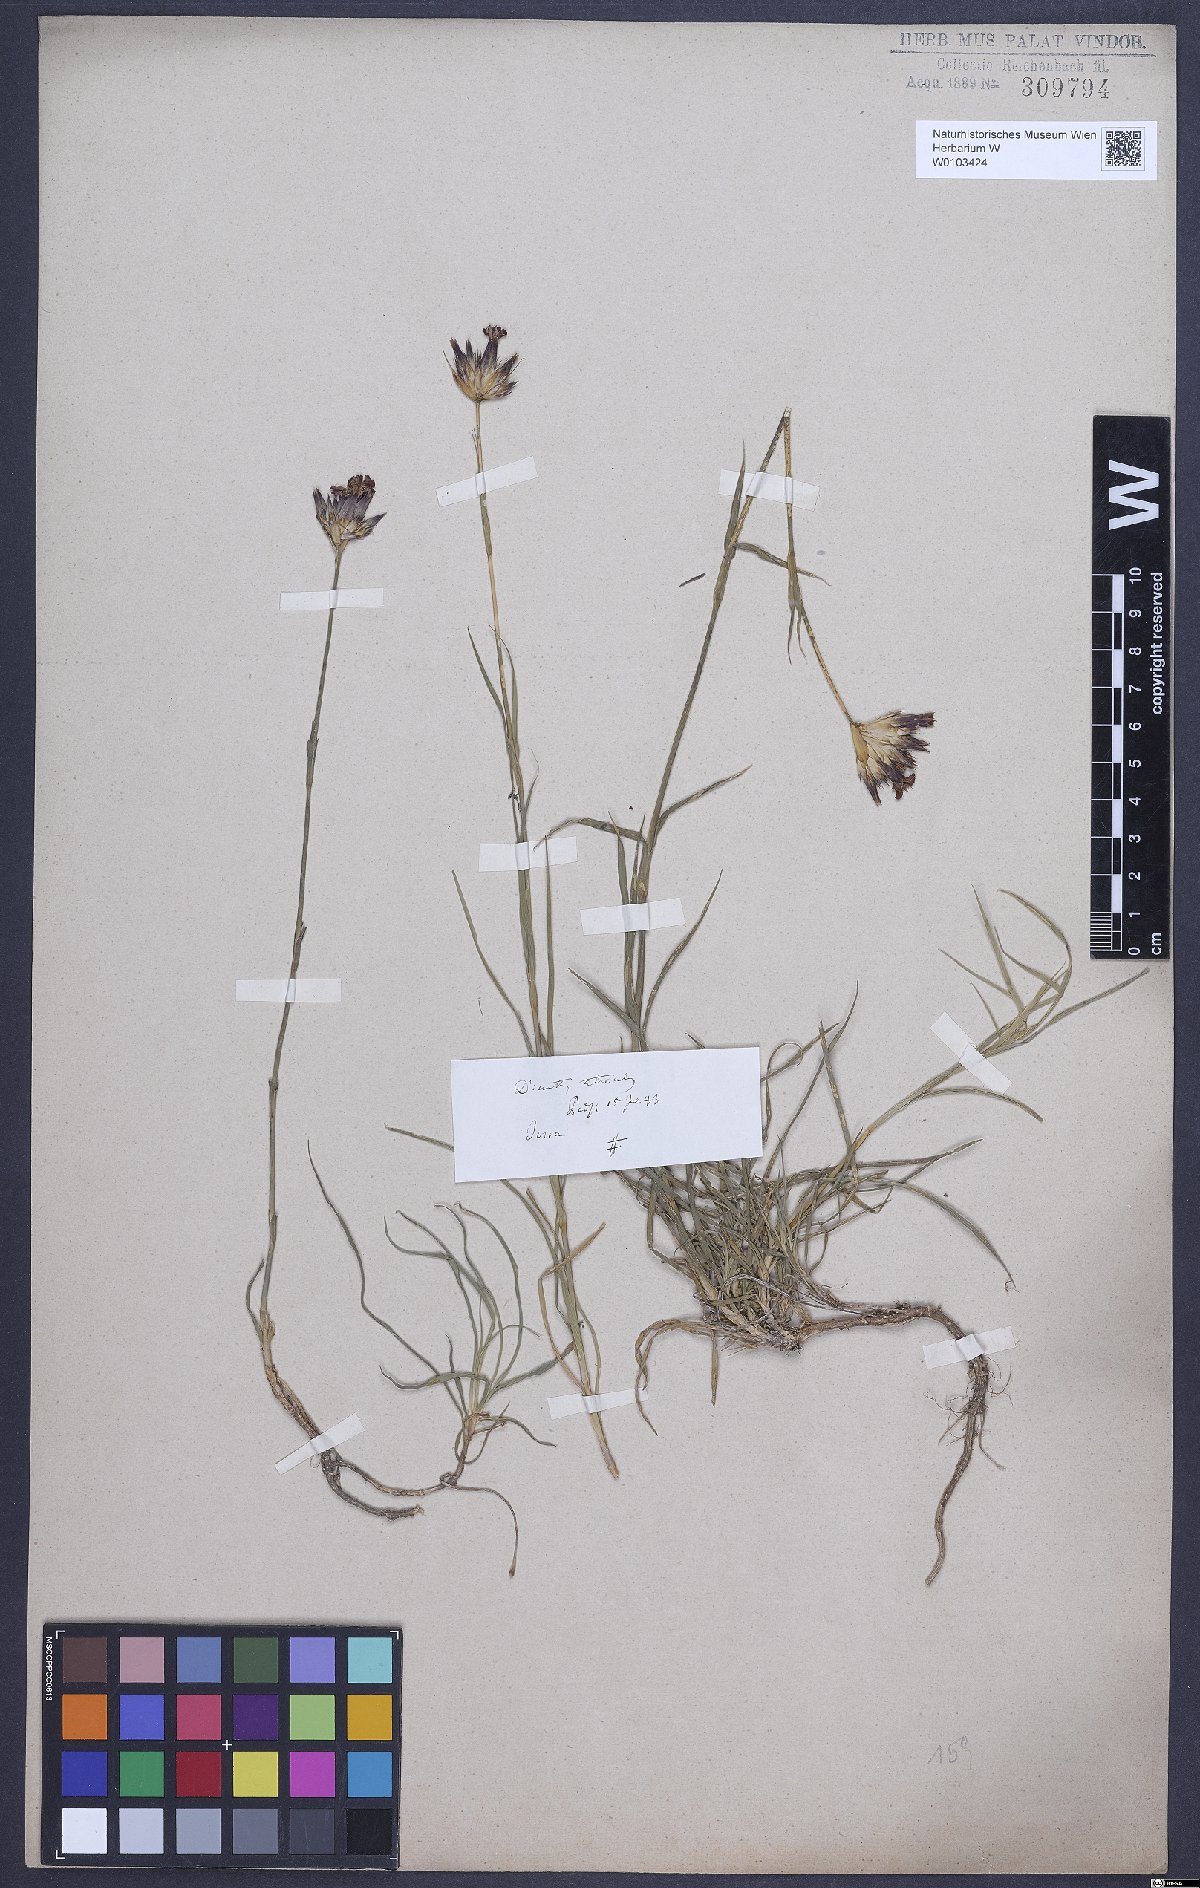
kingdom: Plantae
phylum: Tracheophyta
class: Magnoliopsida
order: Caryophyllales
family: Caryophyllaceae
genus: Dianthus
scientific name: Dianthus carthusianorum
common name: Carthusian pink
